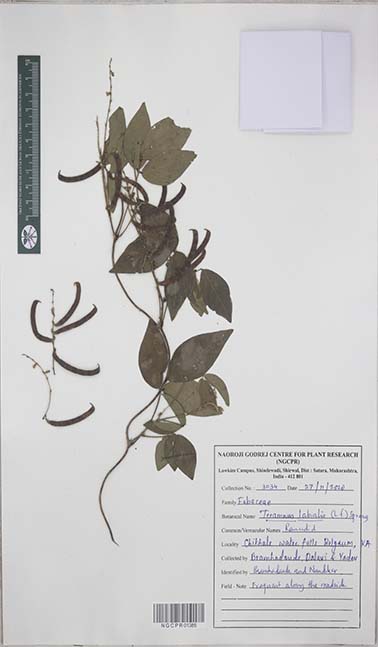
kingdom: Plantae
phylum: Tracheophyta
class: Magnoliopsida
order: Fabales
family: Fabaceae
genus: Teramnus
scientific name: Teramnus labialis
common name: Blue wiss
